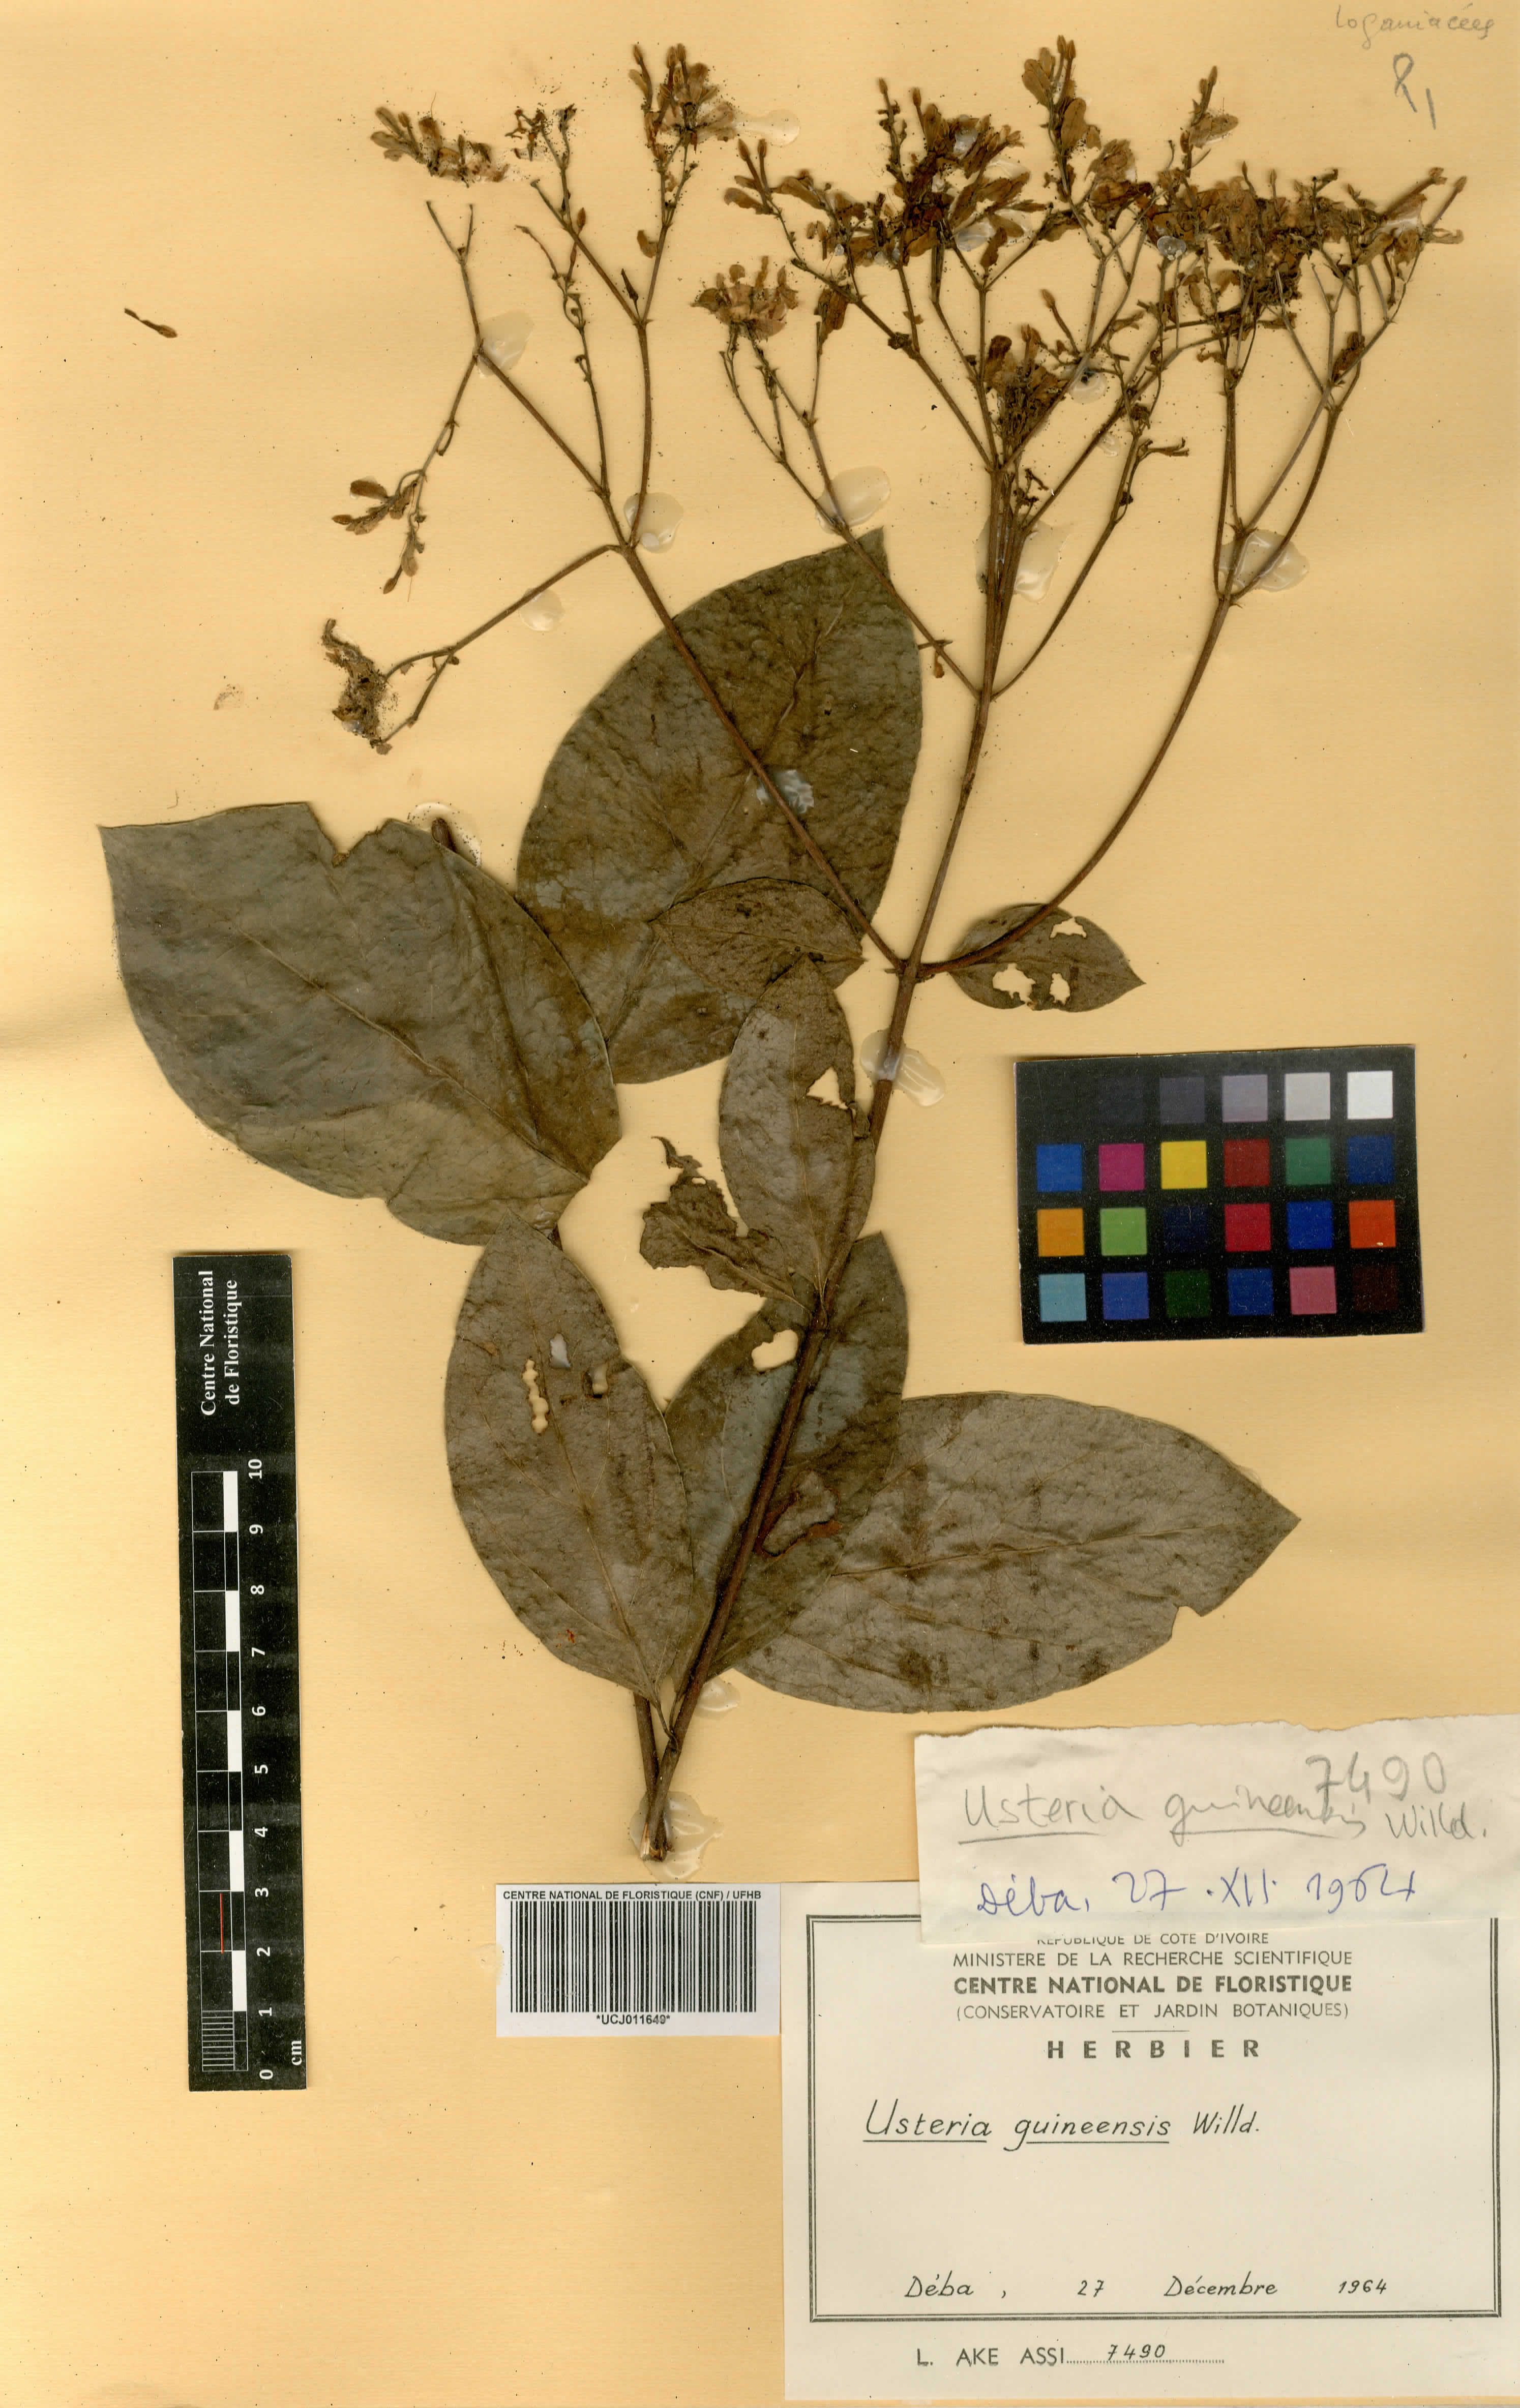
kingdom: Plantae
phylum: Tracheophyta
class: Magnoliopsida
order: Gentianales
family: Loganiaceae
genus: Usteria
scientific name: Usteria guineensis
